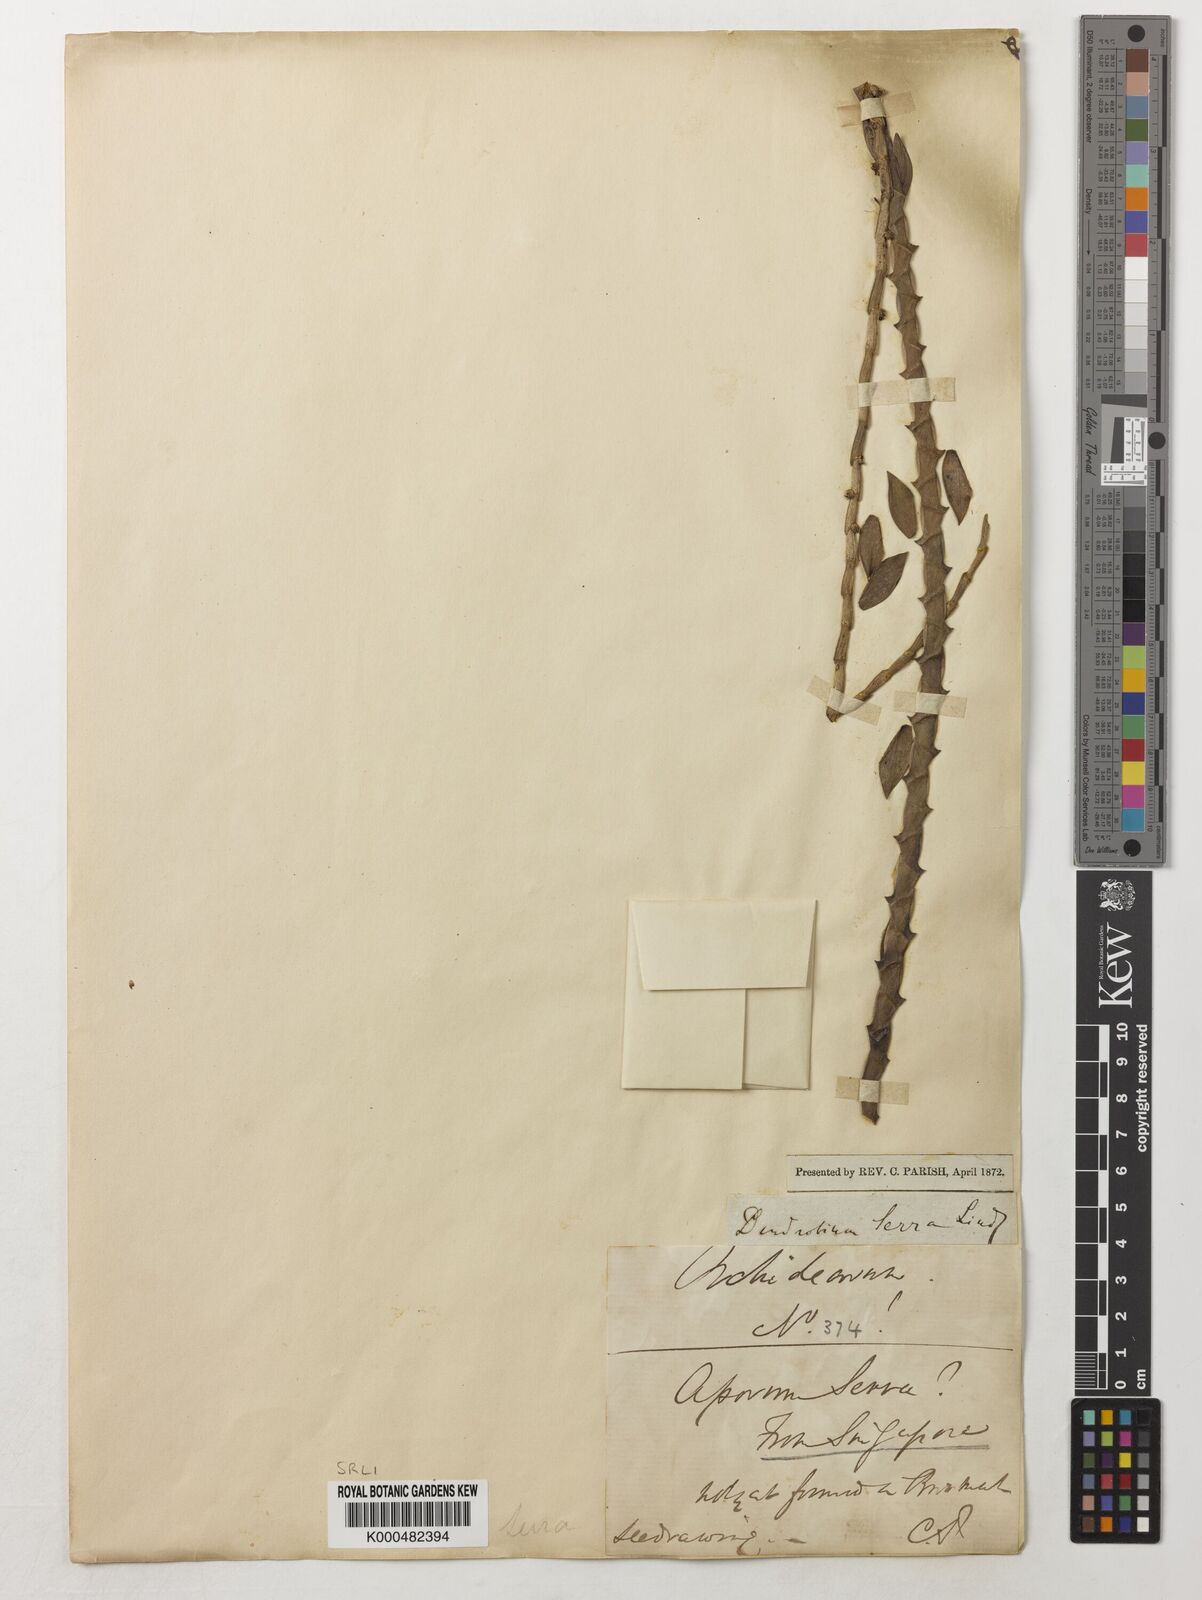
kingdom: Plantae
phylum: Tracheophyta
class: Liliopsida
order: Asparagales
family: Orchidaceae
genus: Dendrobium
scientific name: Dendrobium aloifolium
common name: Aloe-like dendrobium
